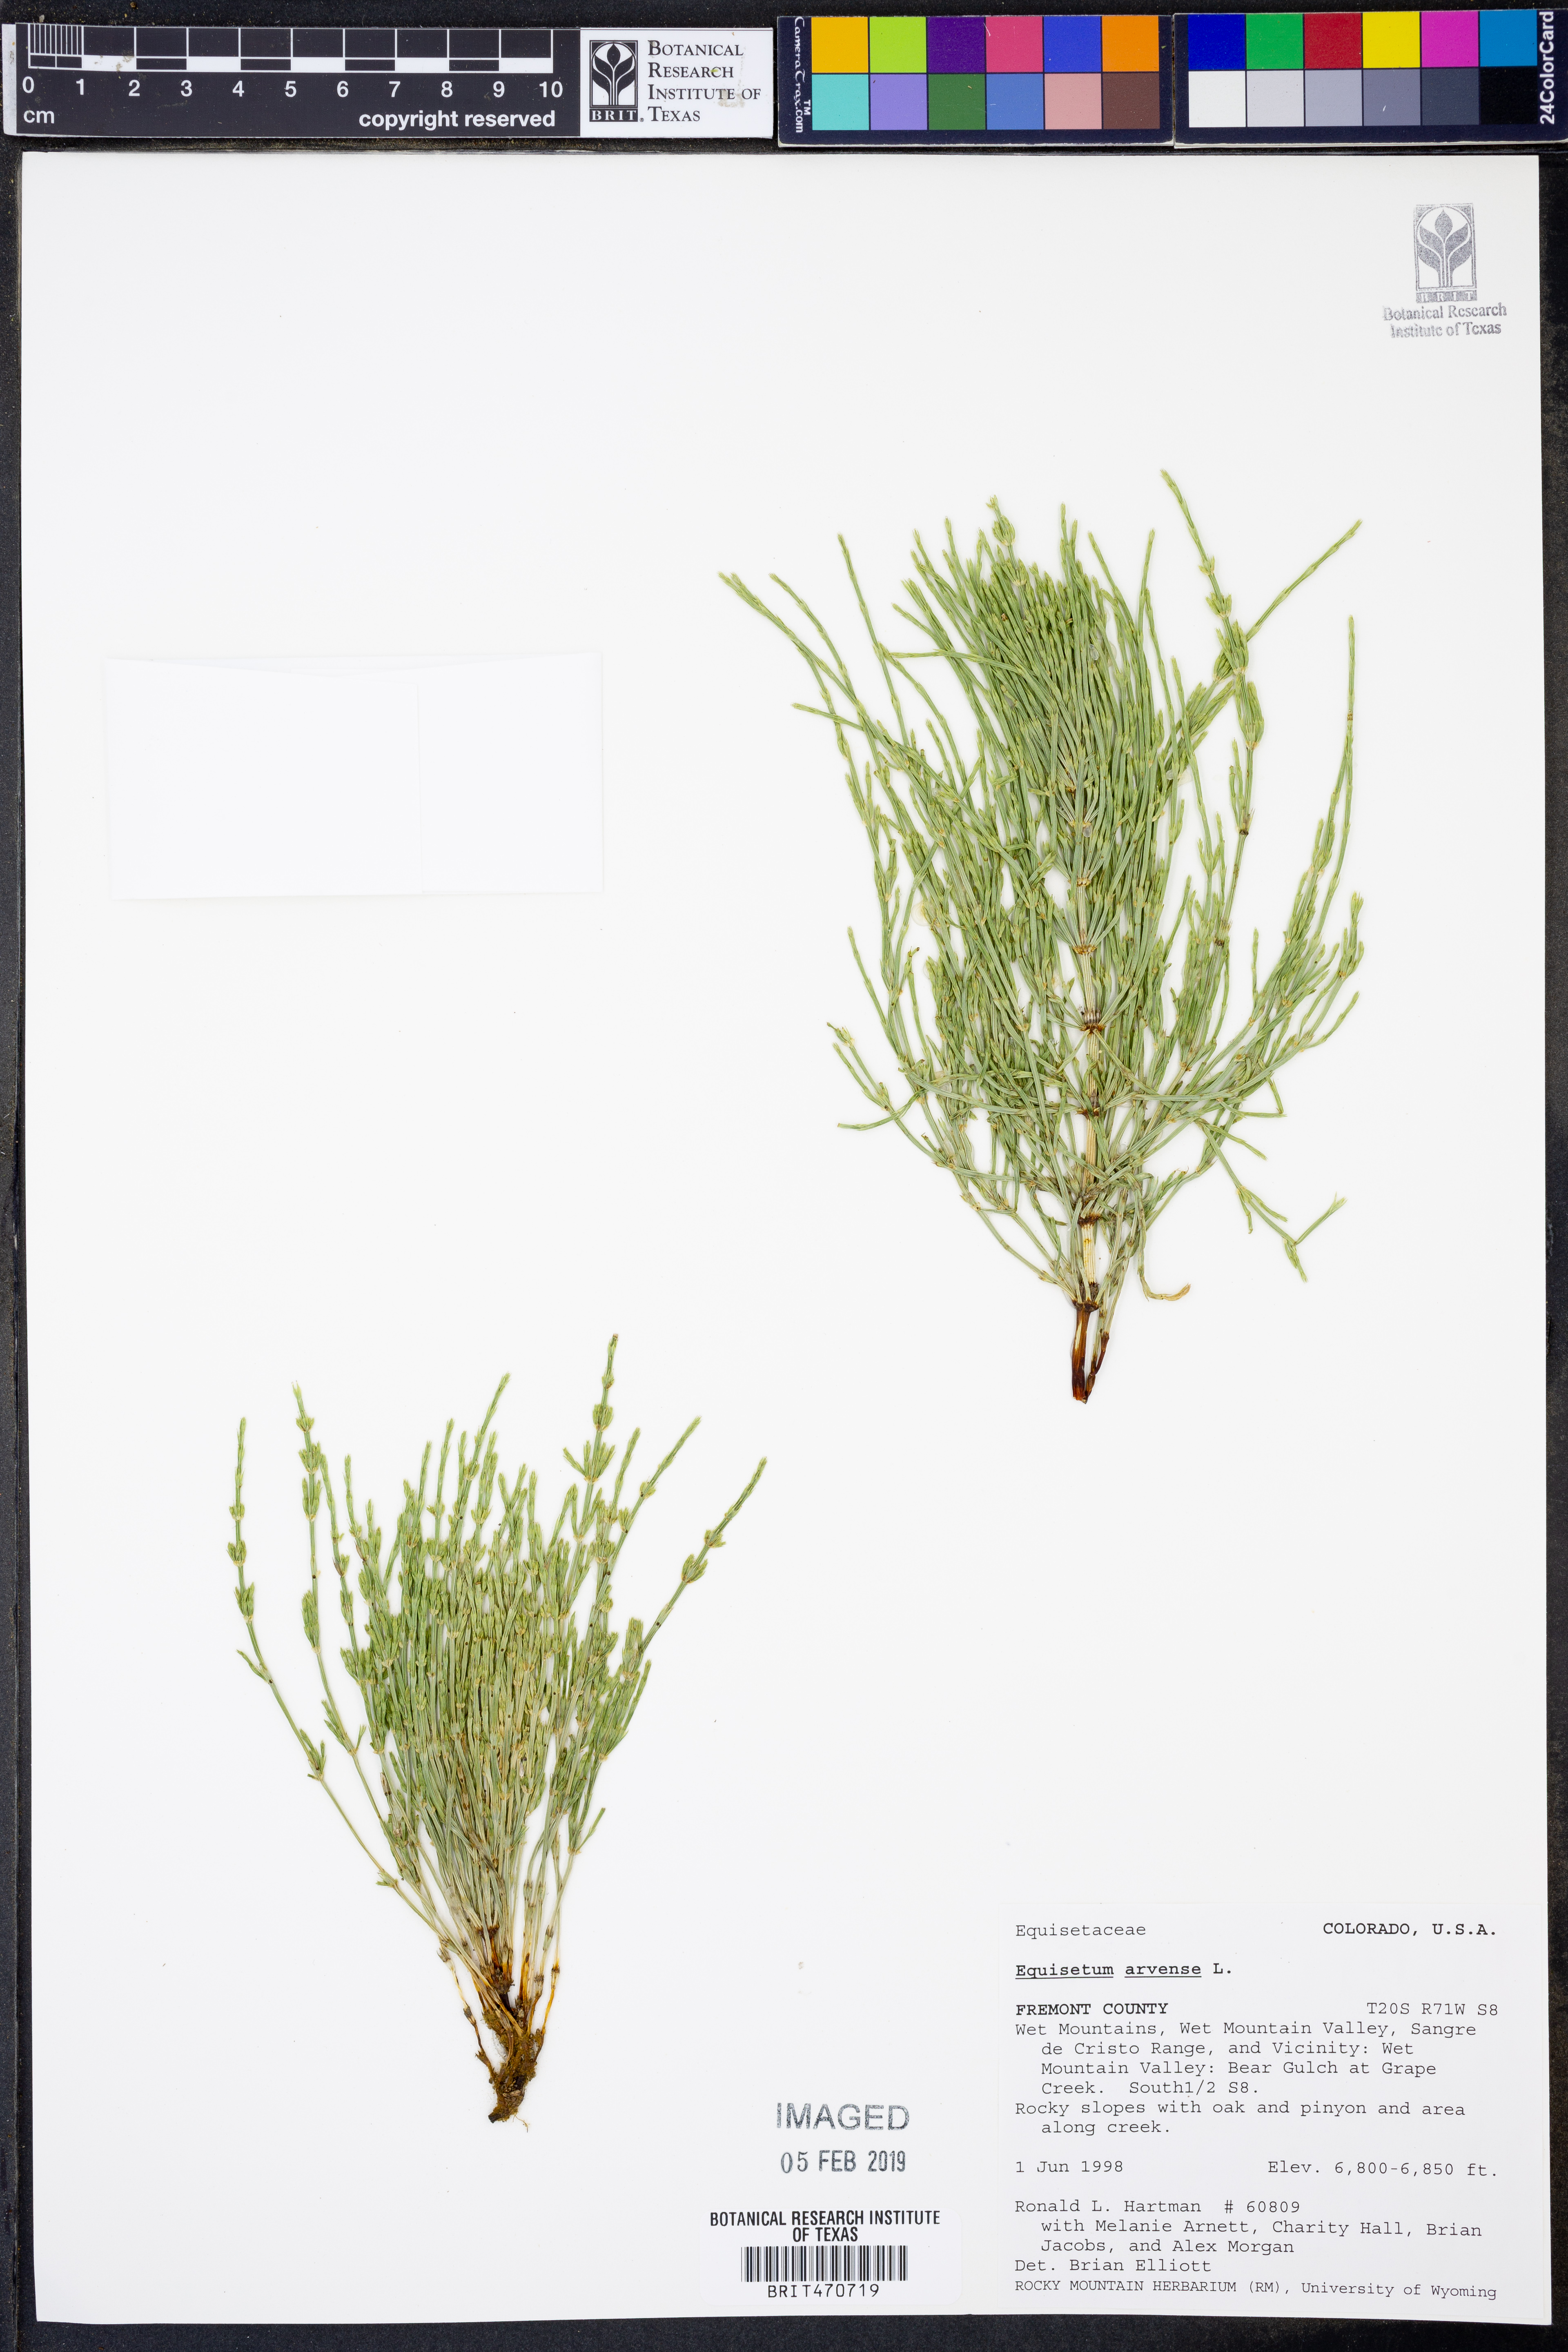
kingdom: Plantae
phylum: Tracheophyta
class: Polypodiopsida
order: Equisetales
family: Equisetaceae
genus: Equisetum
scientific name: Equisetum arvense
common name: Field horsetail
